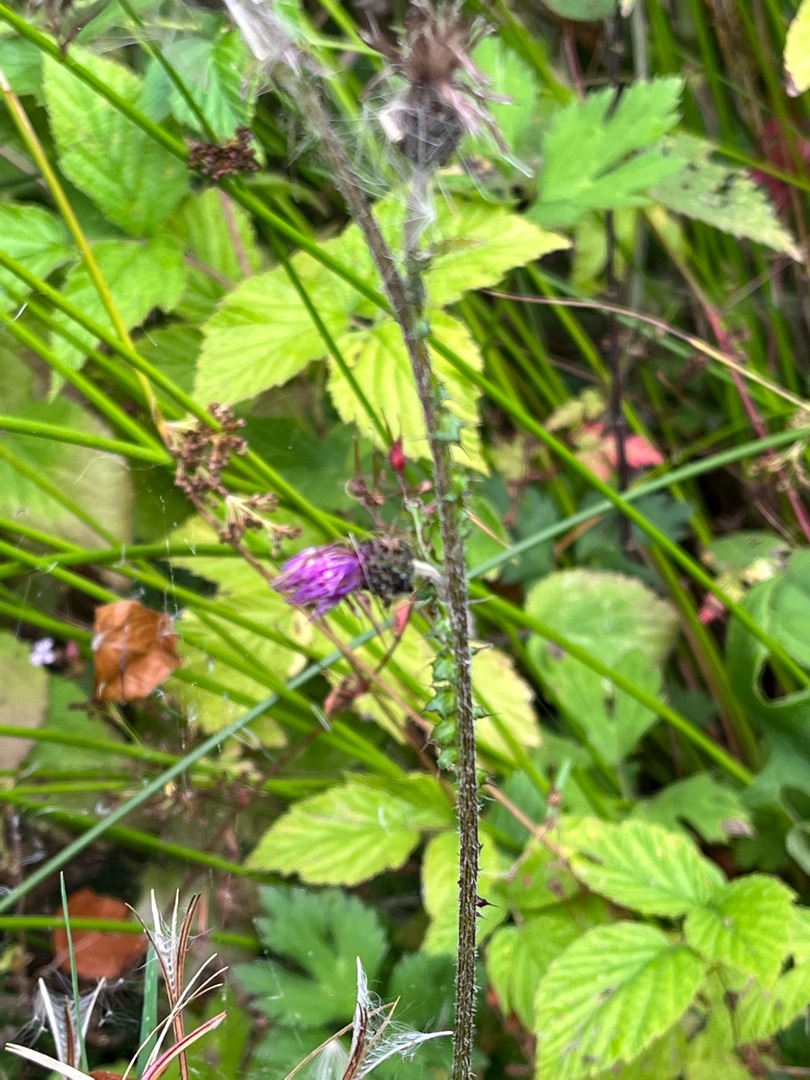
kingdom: Plantae
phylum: Tracheophyta
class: Magnoliopsida
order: Asterales
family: Asteraceae
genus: Cirsium
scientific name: Cirsium palustre
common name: Kær-tidsel
